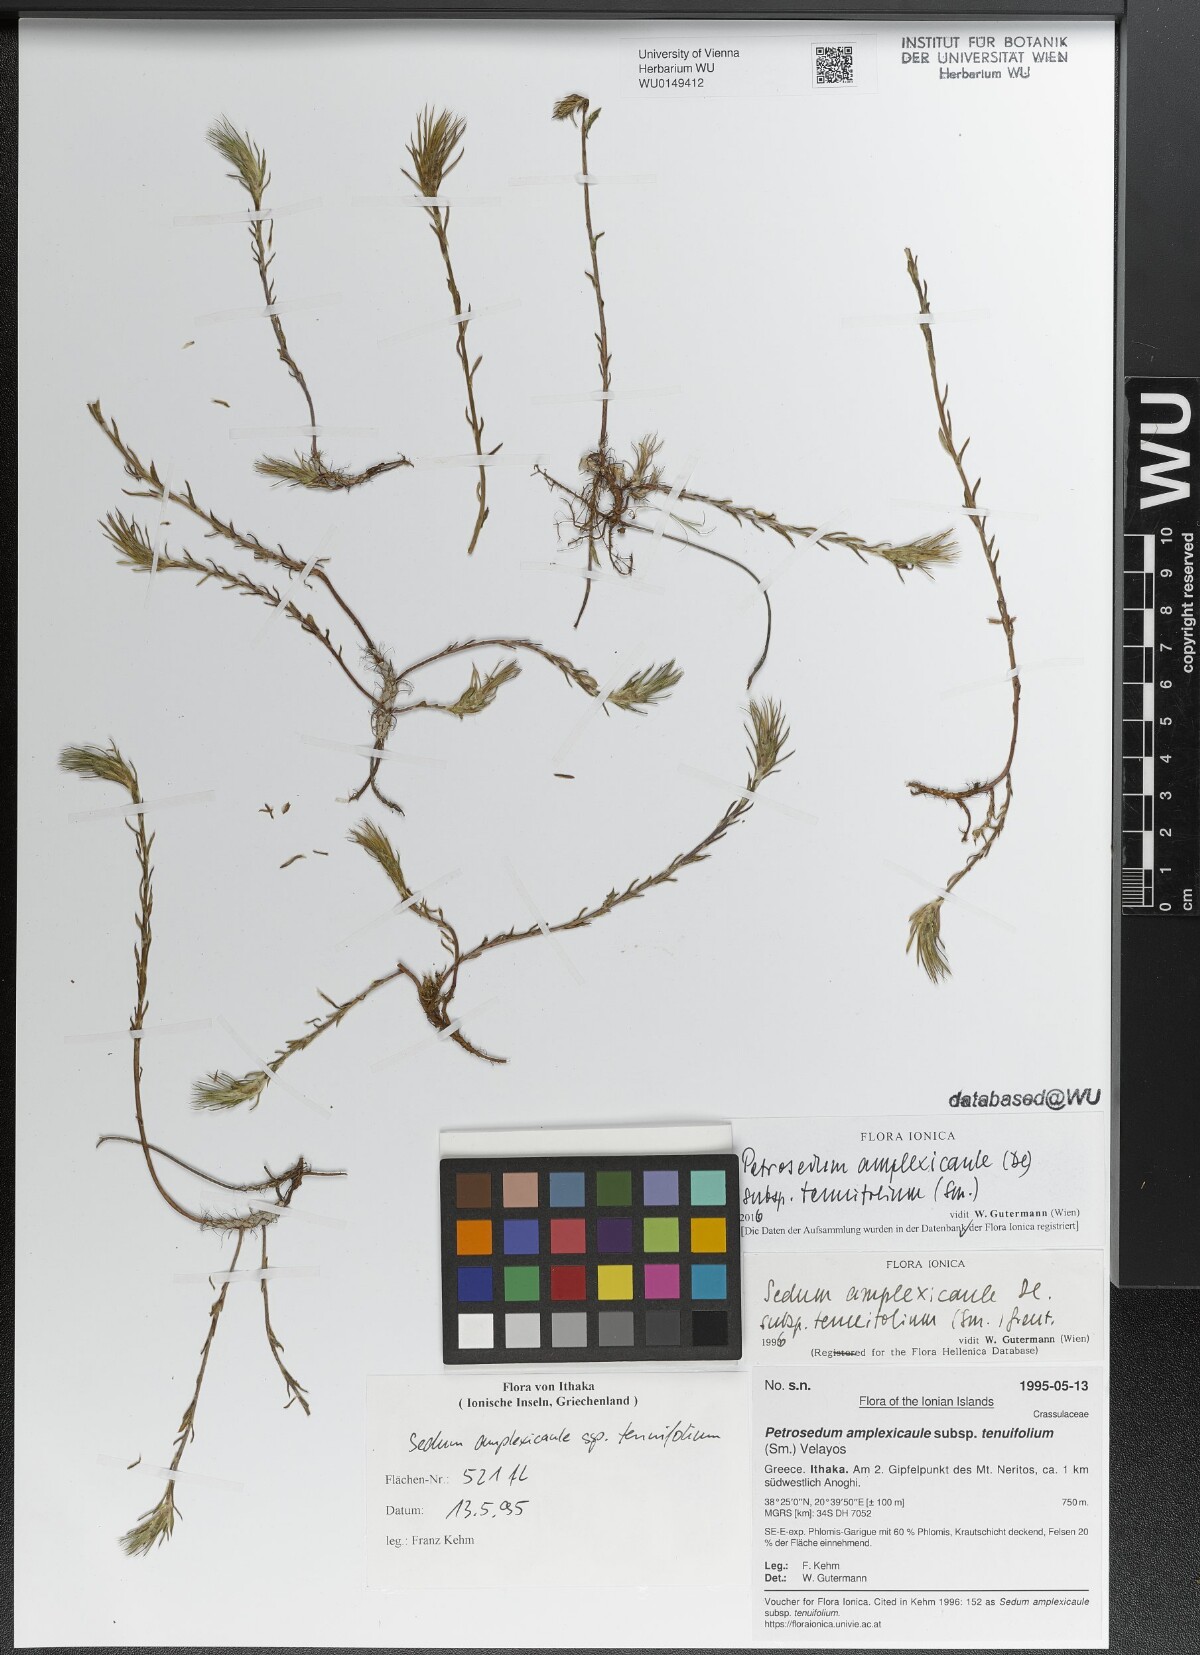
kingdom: Plantae
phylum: Tracheophyta
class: Magnoliopsida
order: Saxifragales
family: Crassulaceae
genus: Petrosedum
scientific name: Petrosedum tenuifolium
